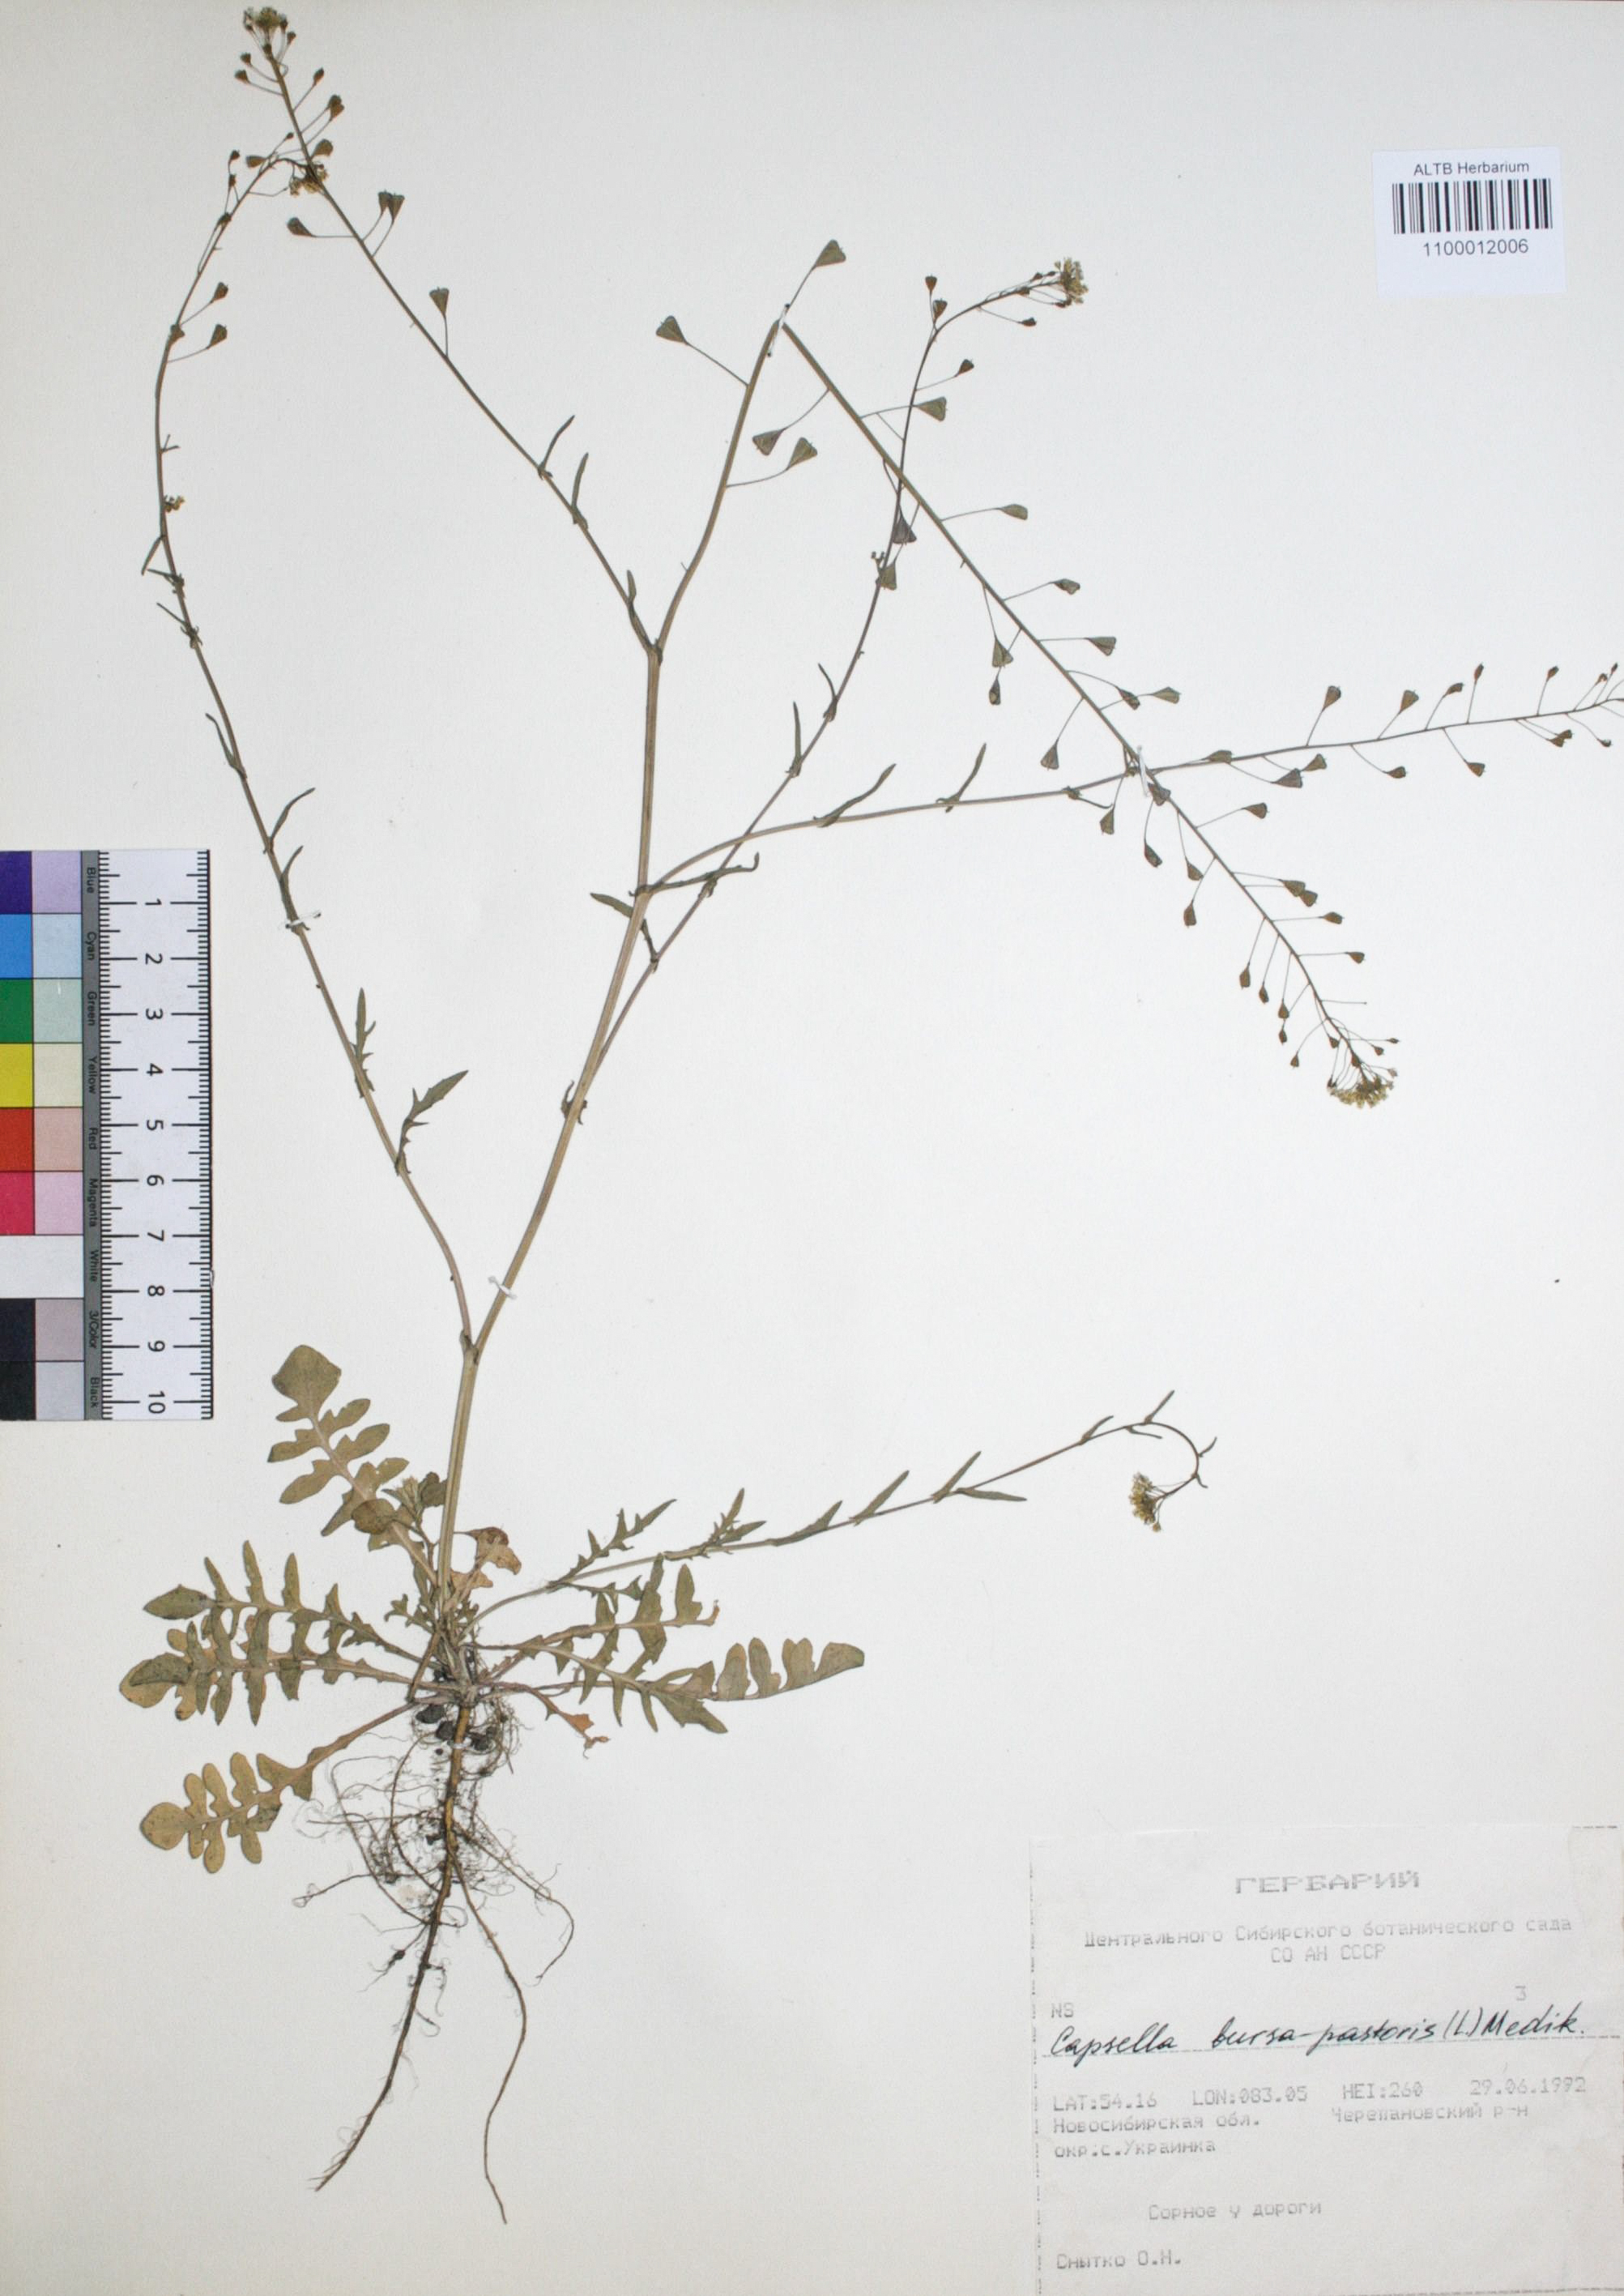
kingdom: Plantae
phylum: Tracheophyta
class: Magnoliopsida
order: Brassicales
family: Brassicaceae
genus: Capsella
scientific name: Capsella bursa-pastoris
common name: Shepherd's purse
